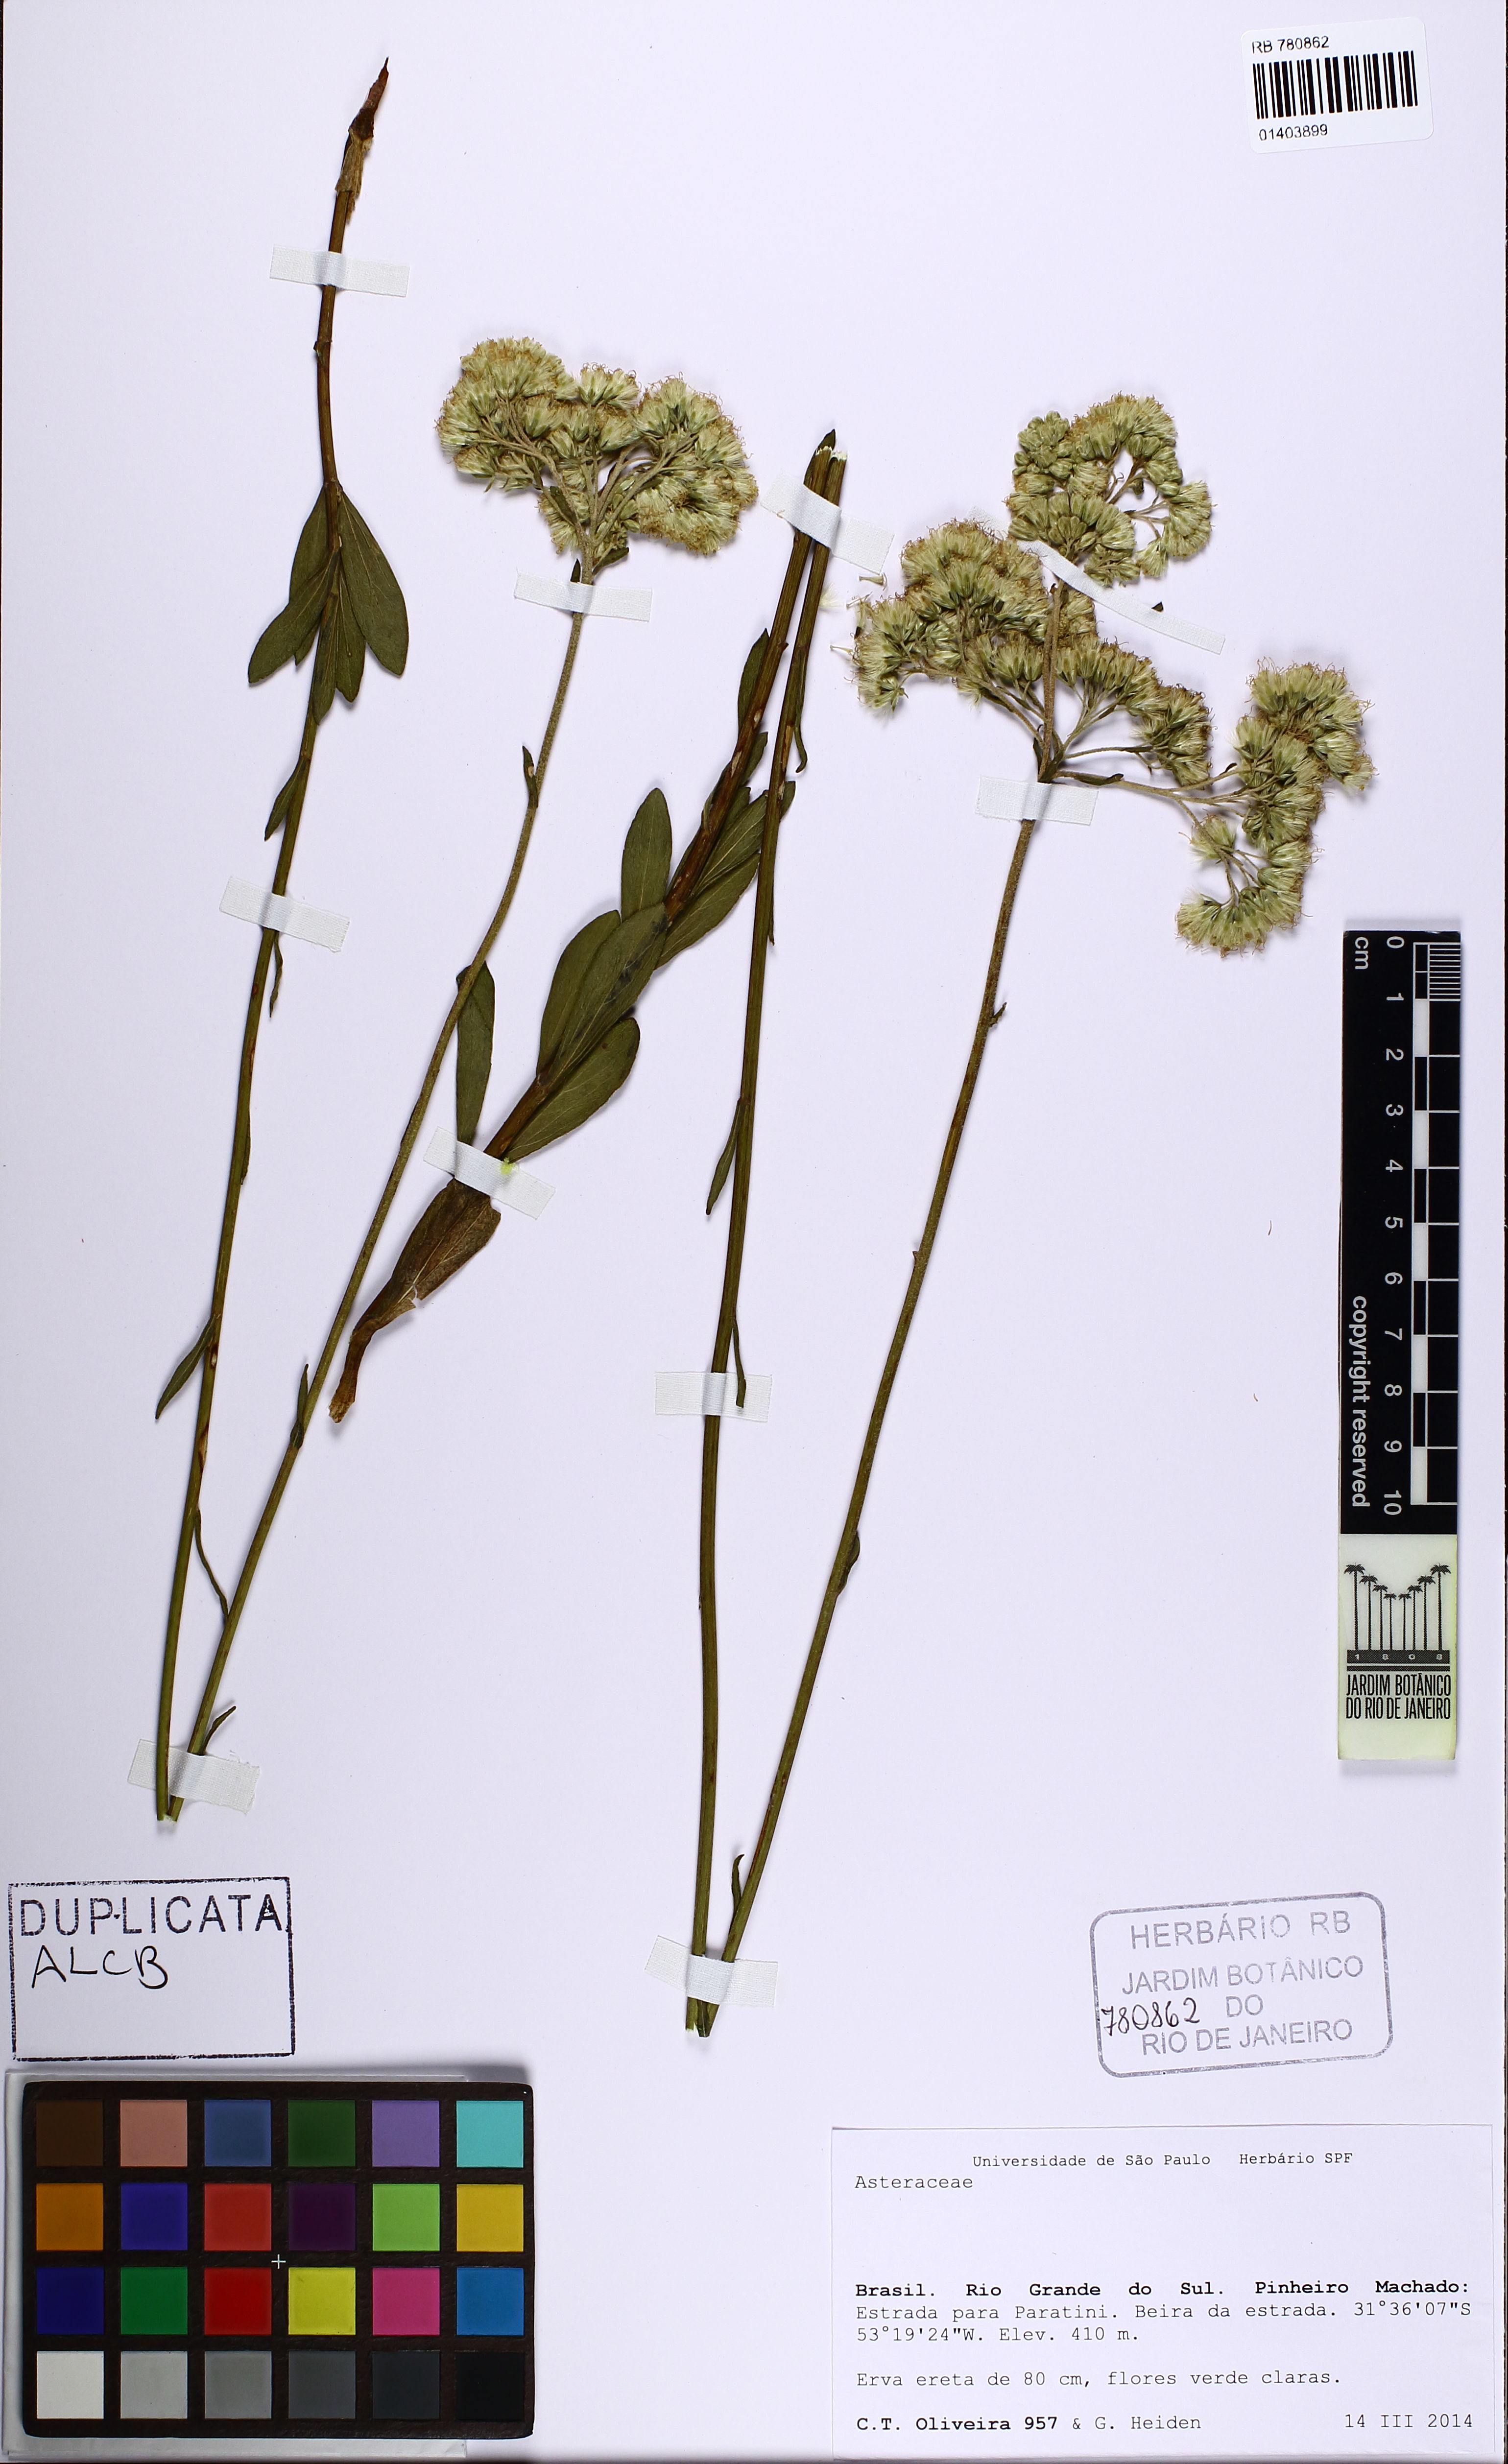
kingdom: Plantae
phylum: Tracheophyta
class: Magnoliopsida
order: Asterales
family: Asteraceae
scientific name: Asteraceae
